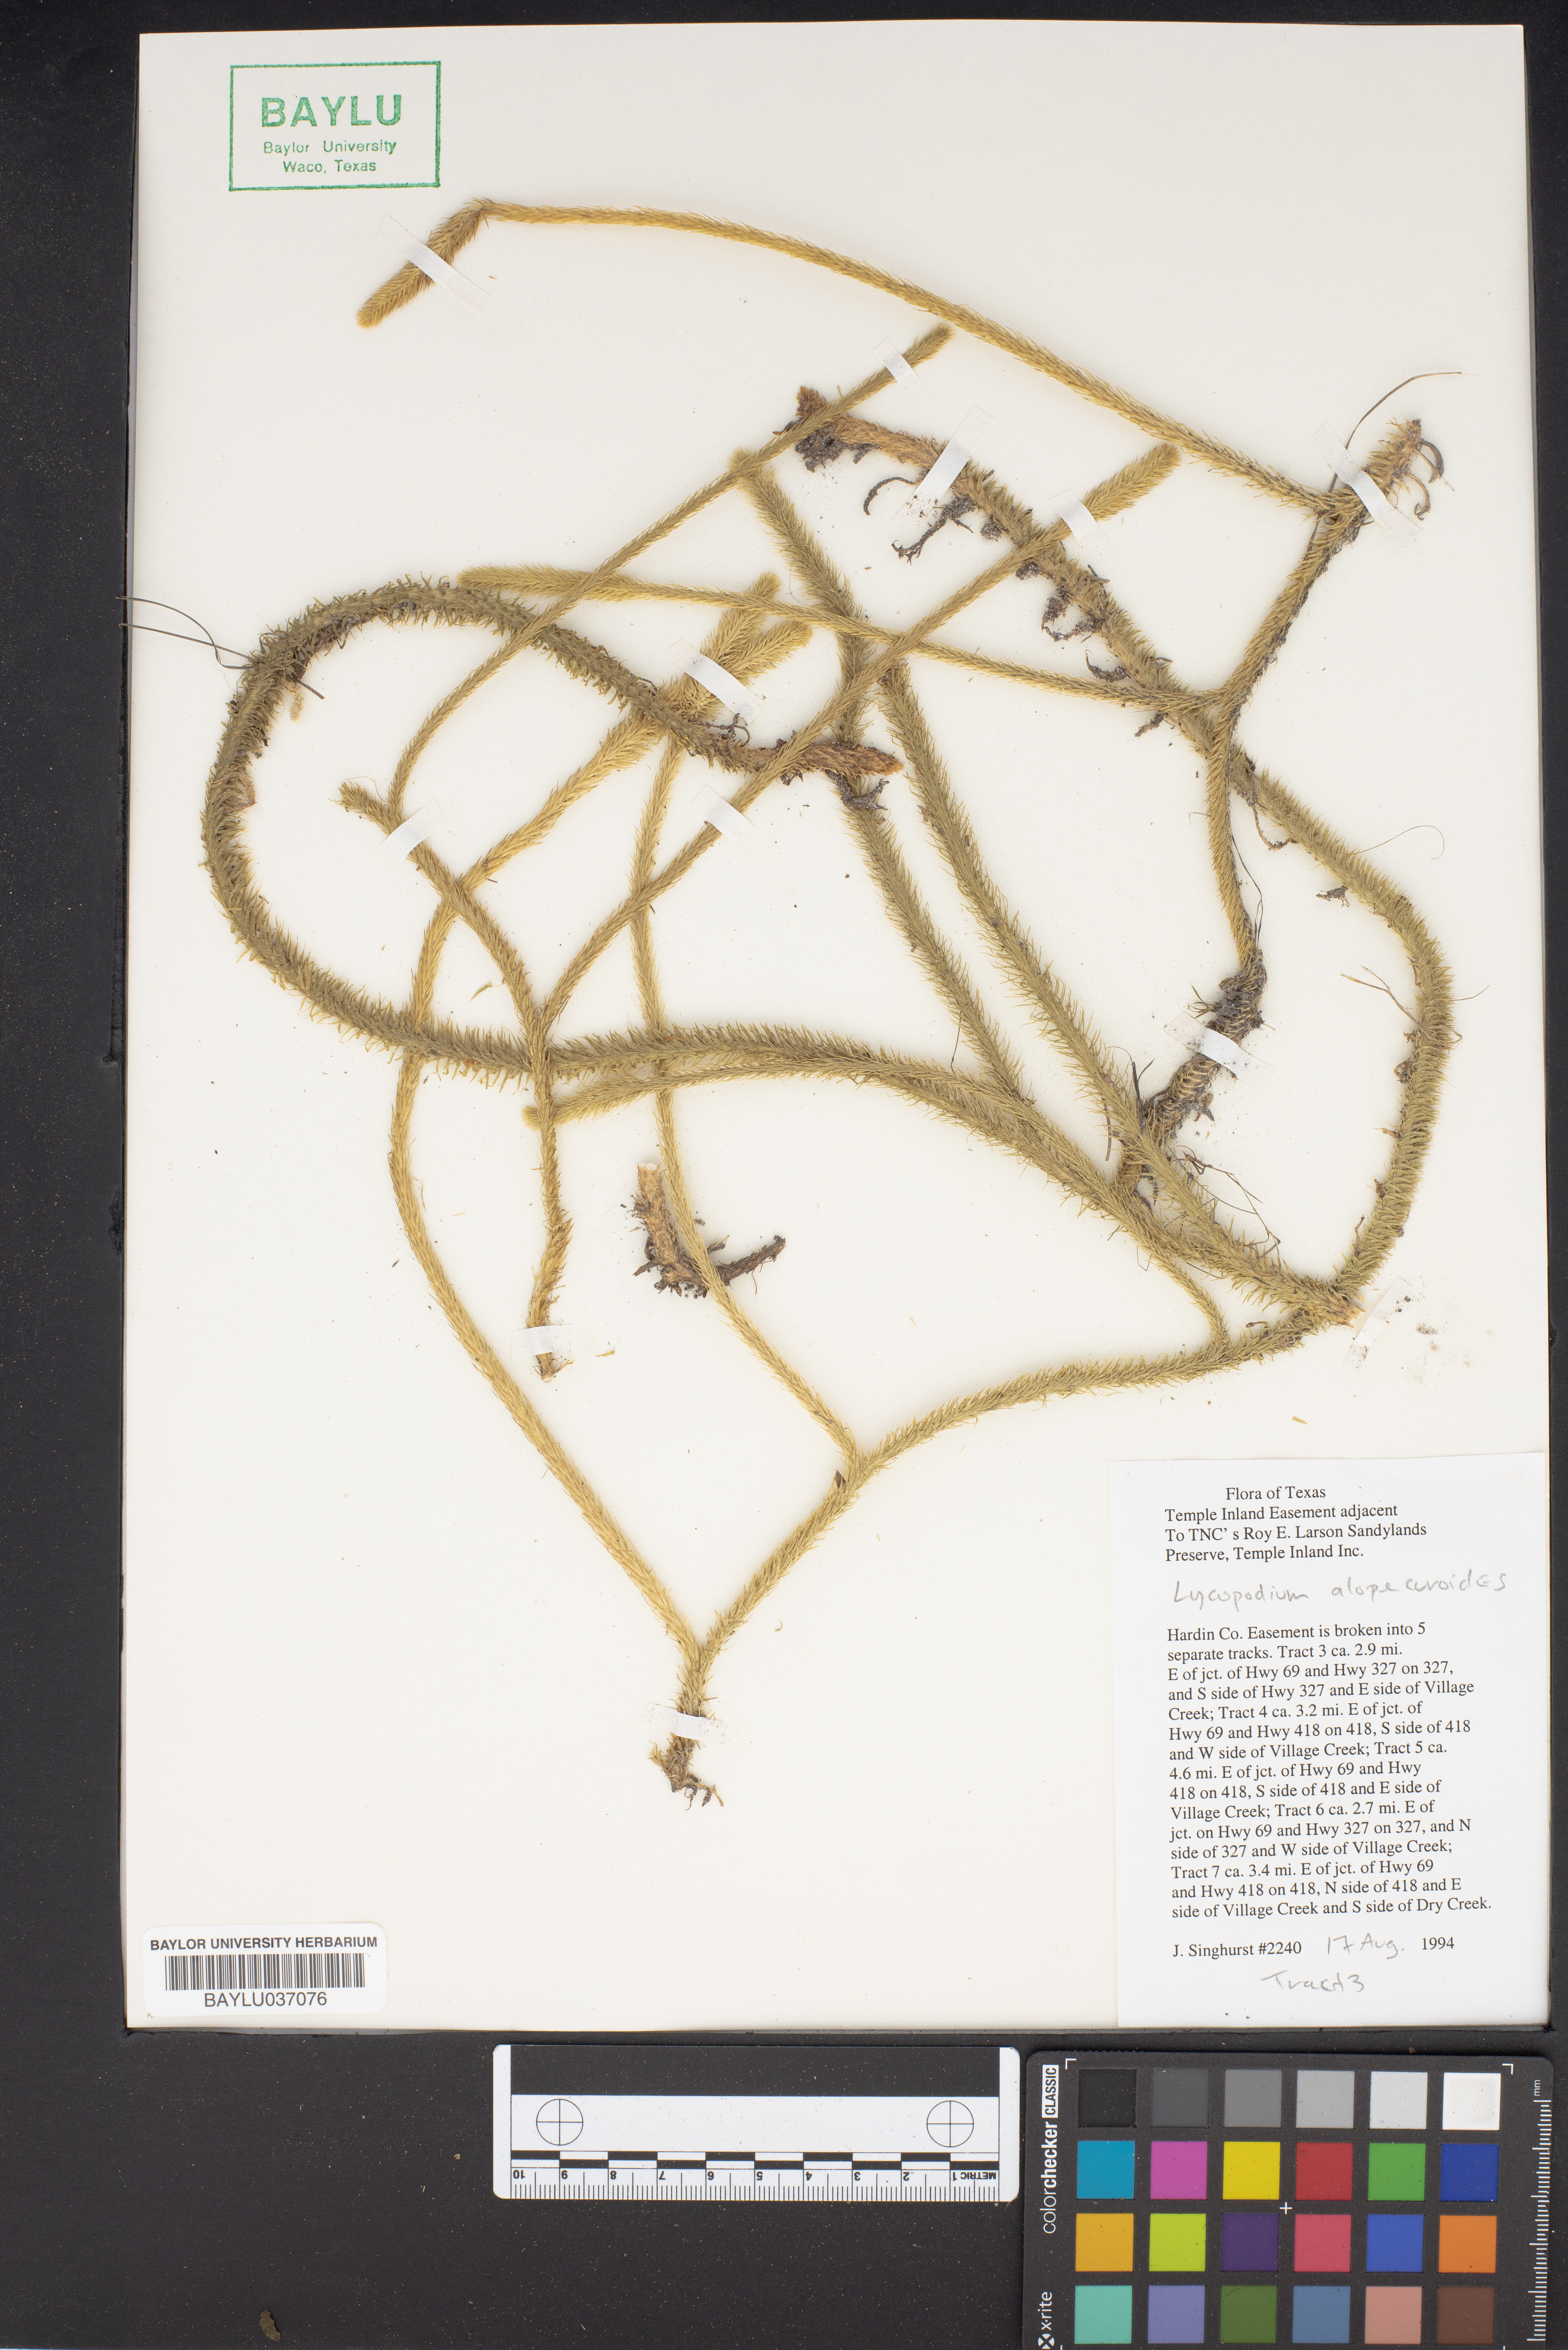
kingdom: Plantae
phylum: Tracheophyta
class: Lycopodiopsida
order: Lycopodiales
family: Lycopodiaceae
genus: Lycopodiella
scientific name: Lycopodiella alopecuroides
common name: Foxtail clubmoss
